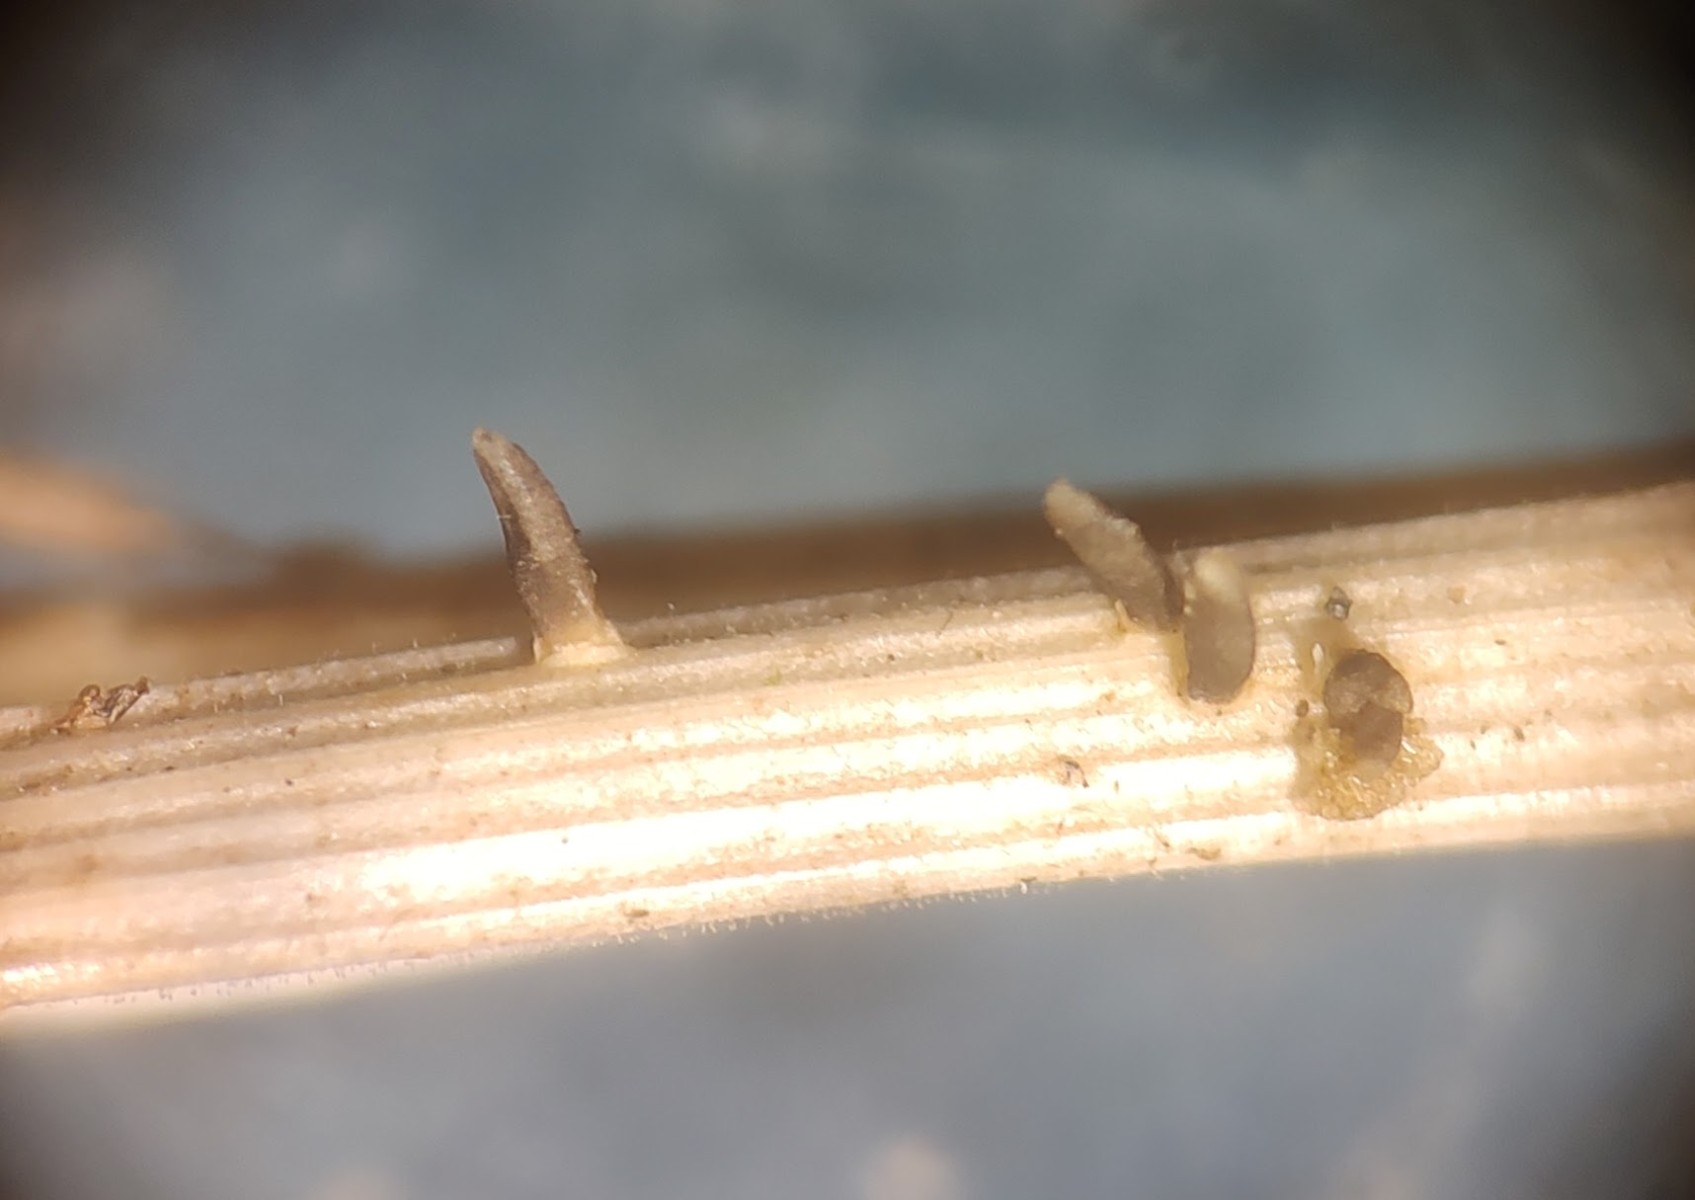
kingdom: Fungi
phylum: Ascomycota
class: Dothideomycetes
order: Acrospermales
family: Acrospermaceae
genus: Acrospermum
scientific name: Acrospermum graminum
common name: græs-stængeltunge
